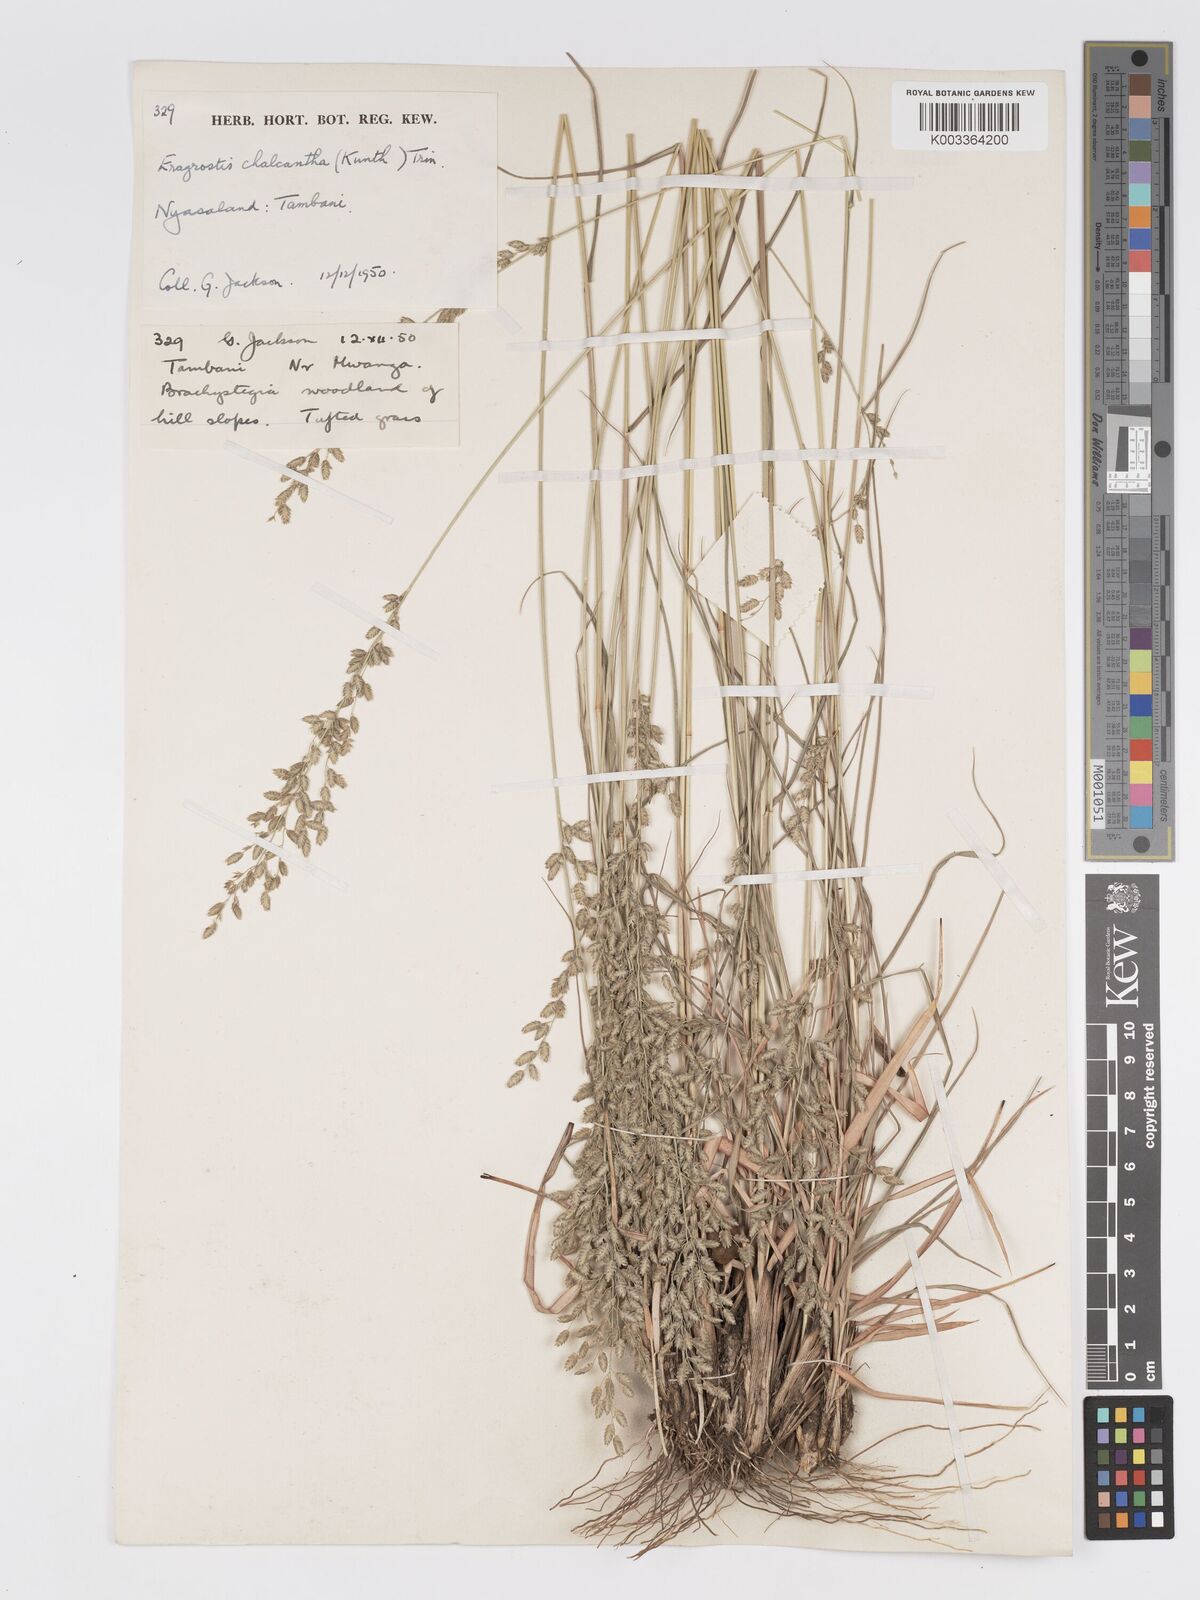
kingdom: Plantae
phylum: Tracheophyta
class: Liliopsida
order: Poales
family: Poaceae
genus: Eragrostis
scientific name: Eragrostis racemosa
